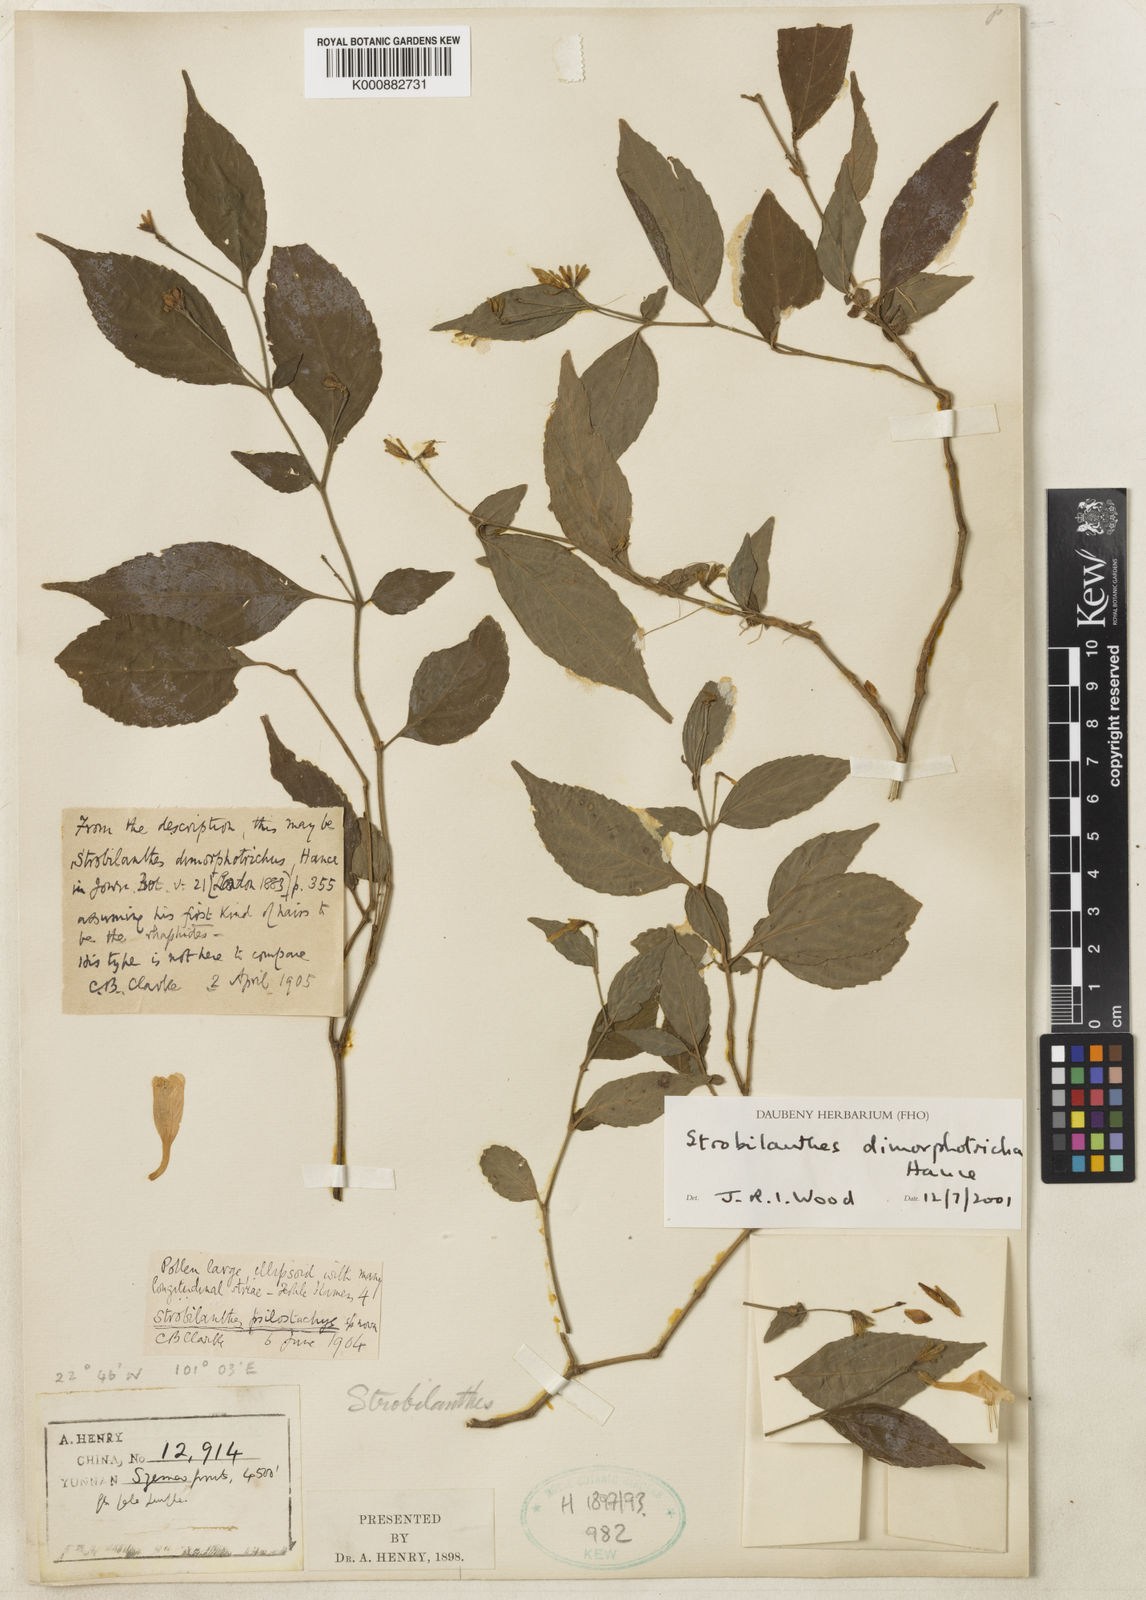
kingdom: Plantae
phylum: Tracheophyta
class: Magnoliopsida
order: Lamiales
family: Acanthaceae
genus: Strobilanthes
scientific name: Strobilanthes dimorphotricha
